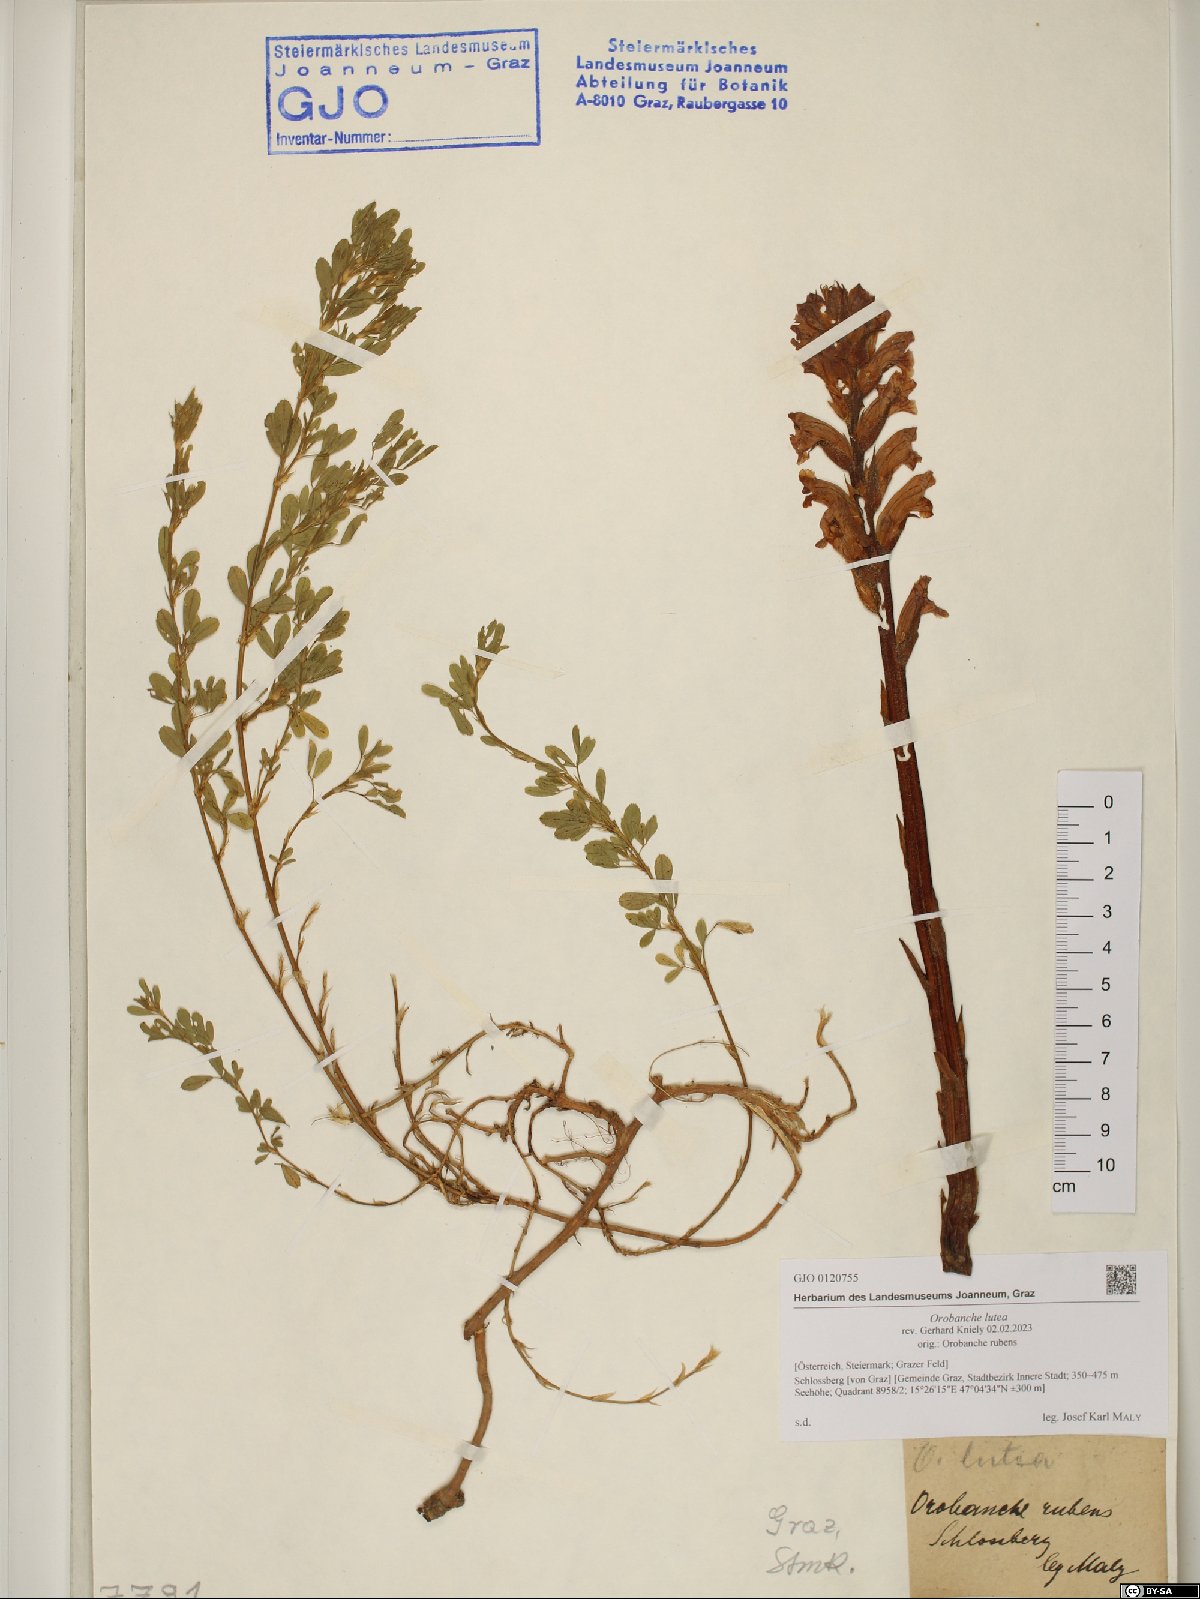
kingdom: Plantae
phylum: Tracheophyta
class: Magnoliopsida
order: Lamiales
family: Orobanchaceae
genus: Orobanche
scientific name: Orobanche lutea
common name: Yellow broomrape
